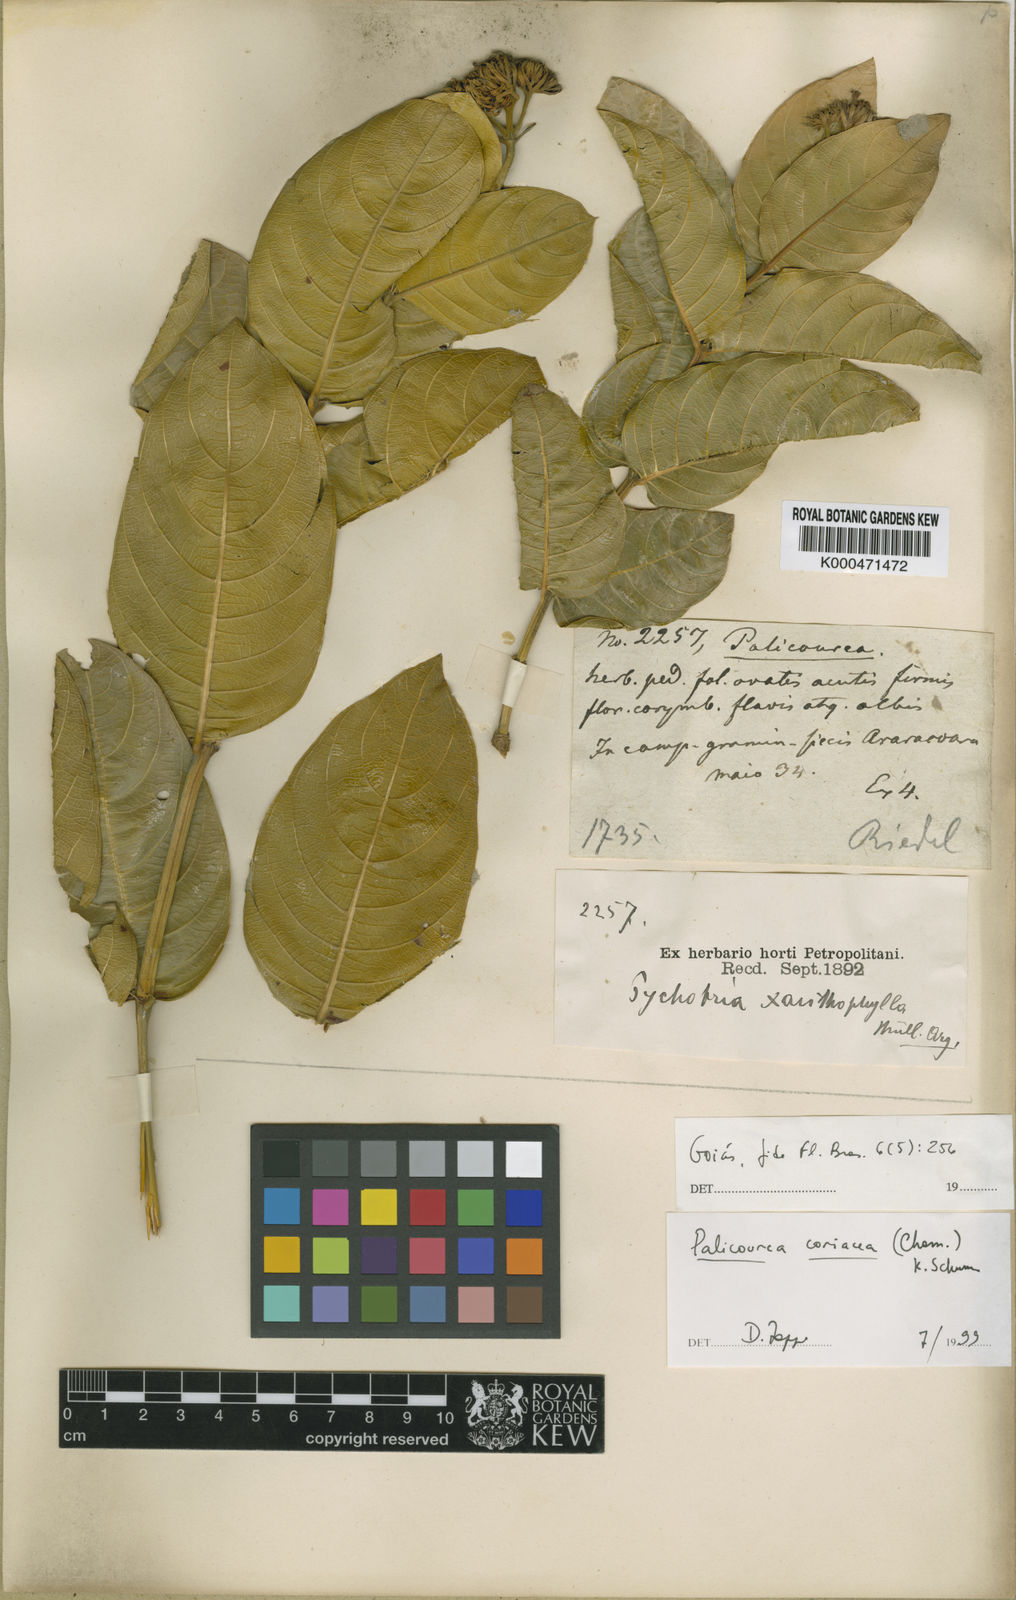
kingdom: Plantae
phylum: Tracheophyta
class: Magnoliopsida
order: Gentianales
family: Rubiaceae
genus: Palicourea
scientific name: Palicourea coriacea
